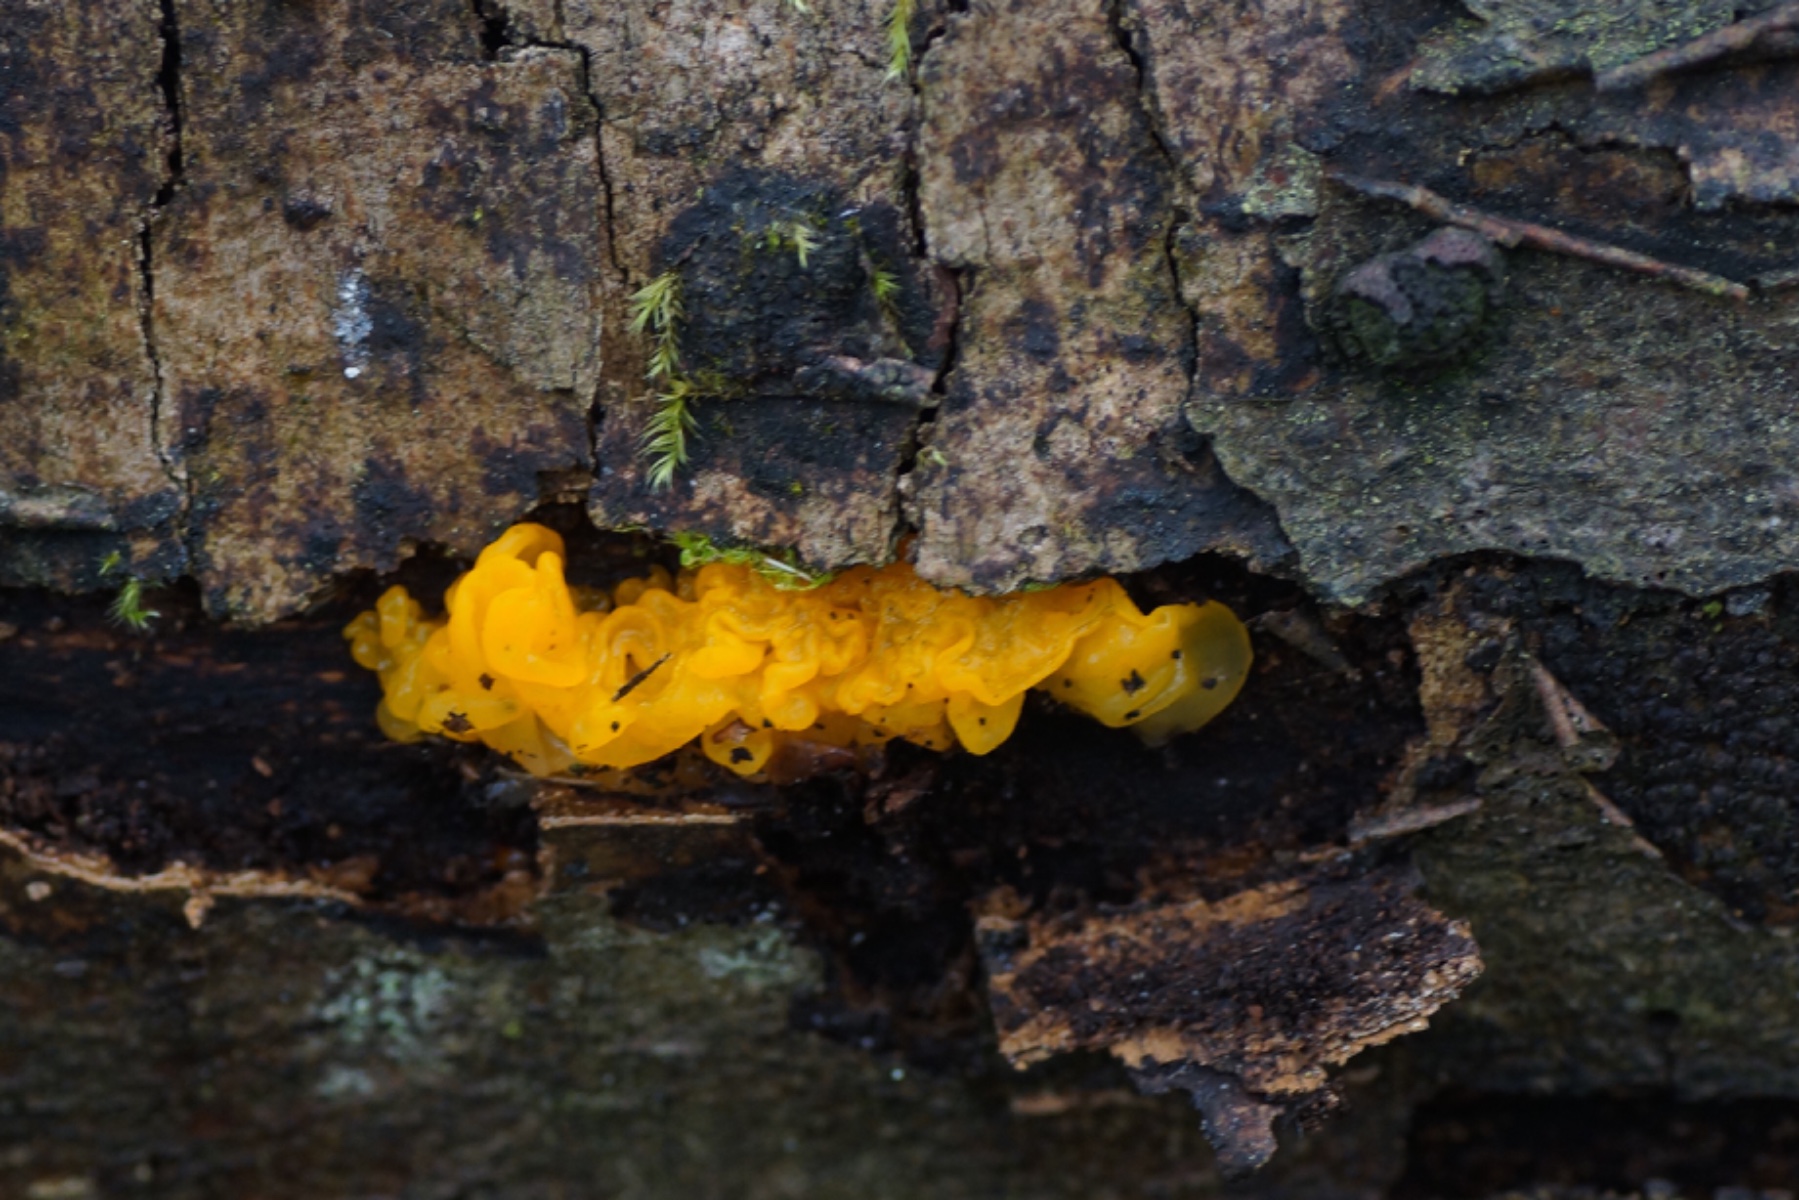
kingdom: Fungi
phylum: Basidiomycota
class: Tremellomycetes
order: Tremellales
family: Tremellaceae
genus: Tremella
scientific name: Tremella mesenterica
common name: gul bævresvamp
